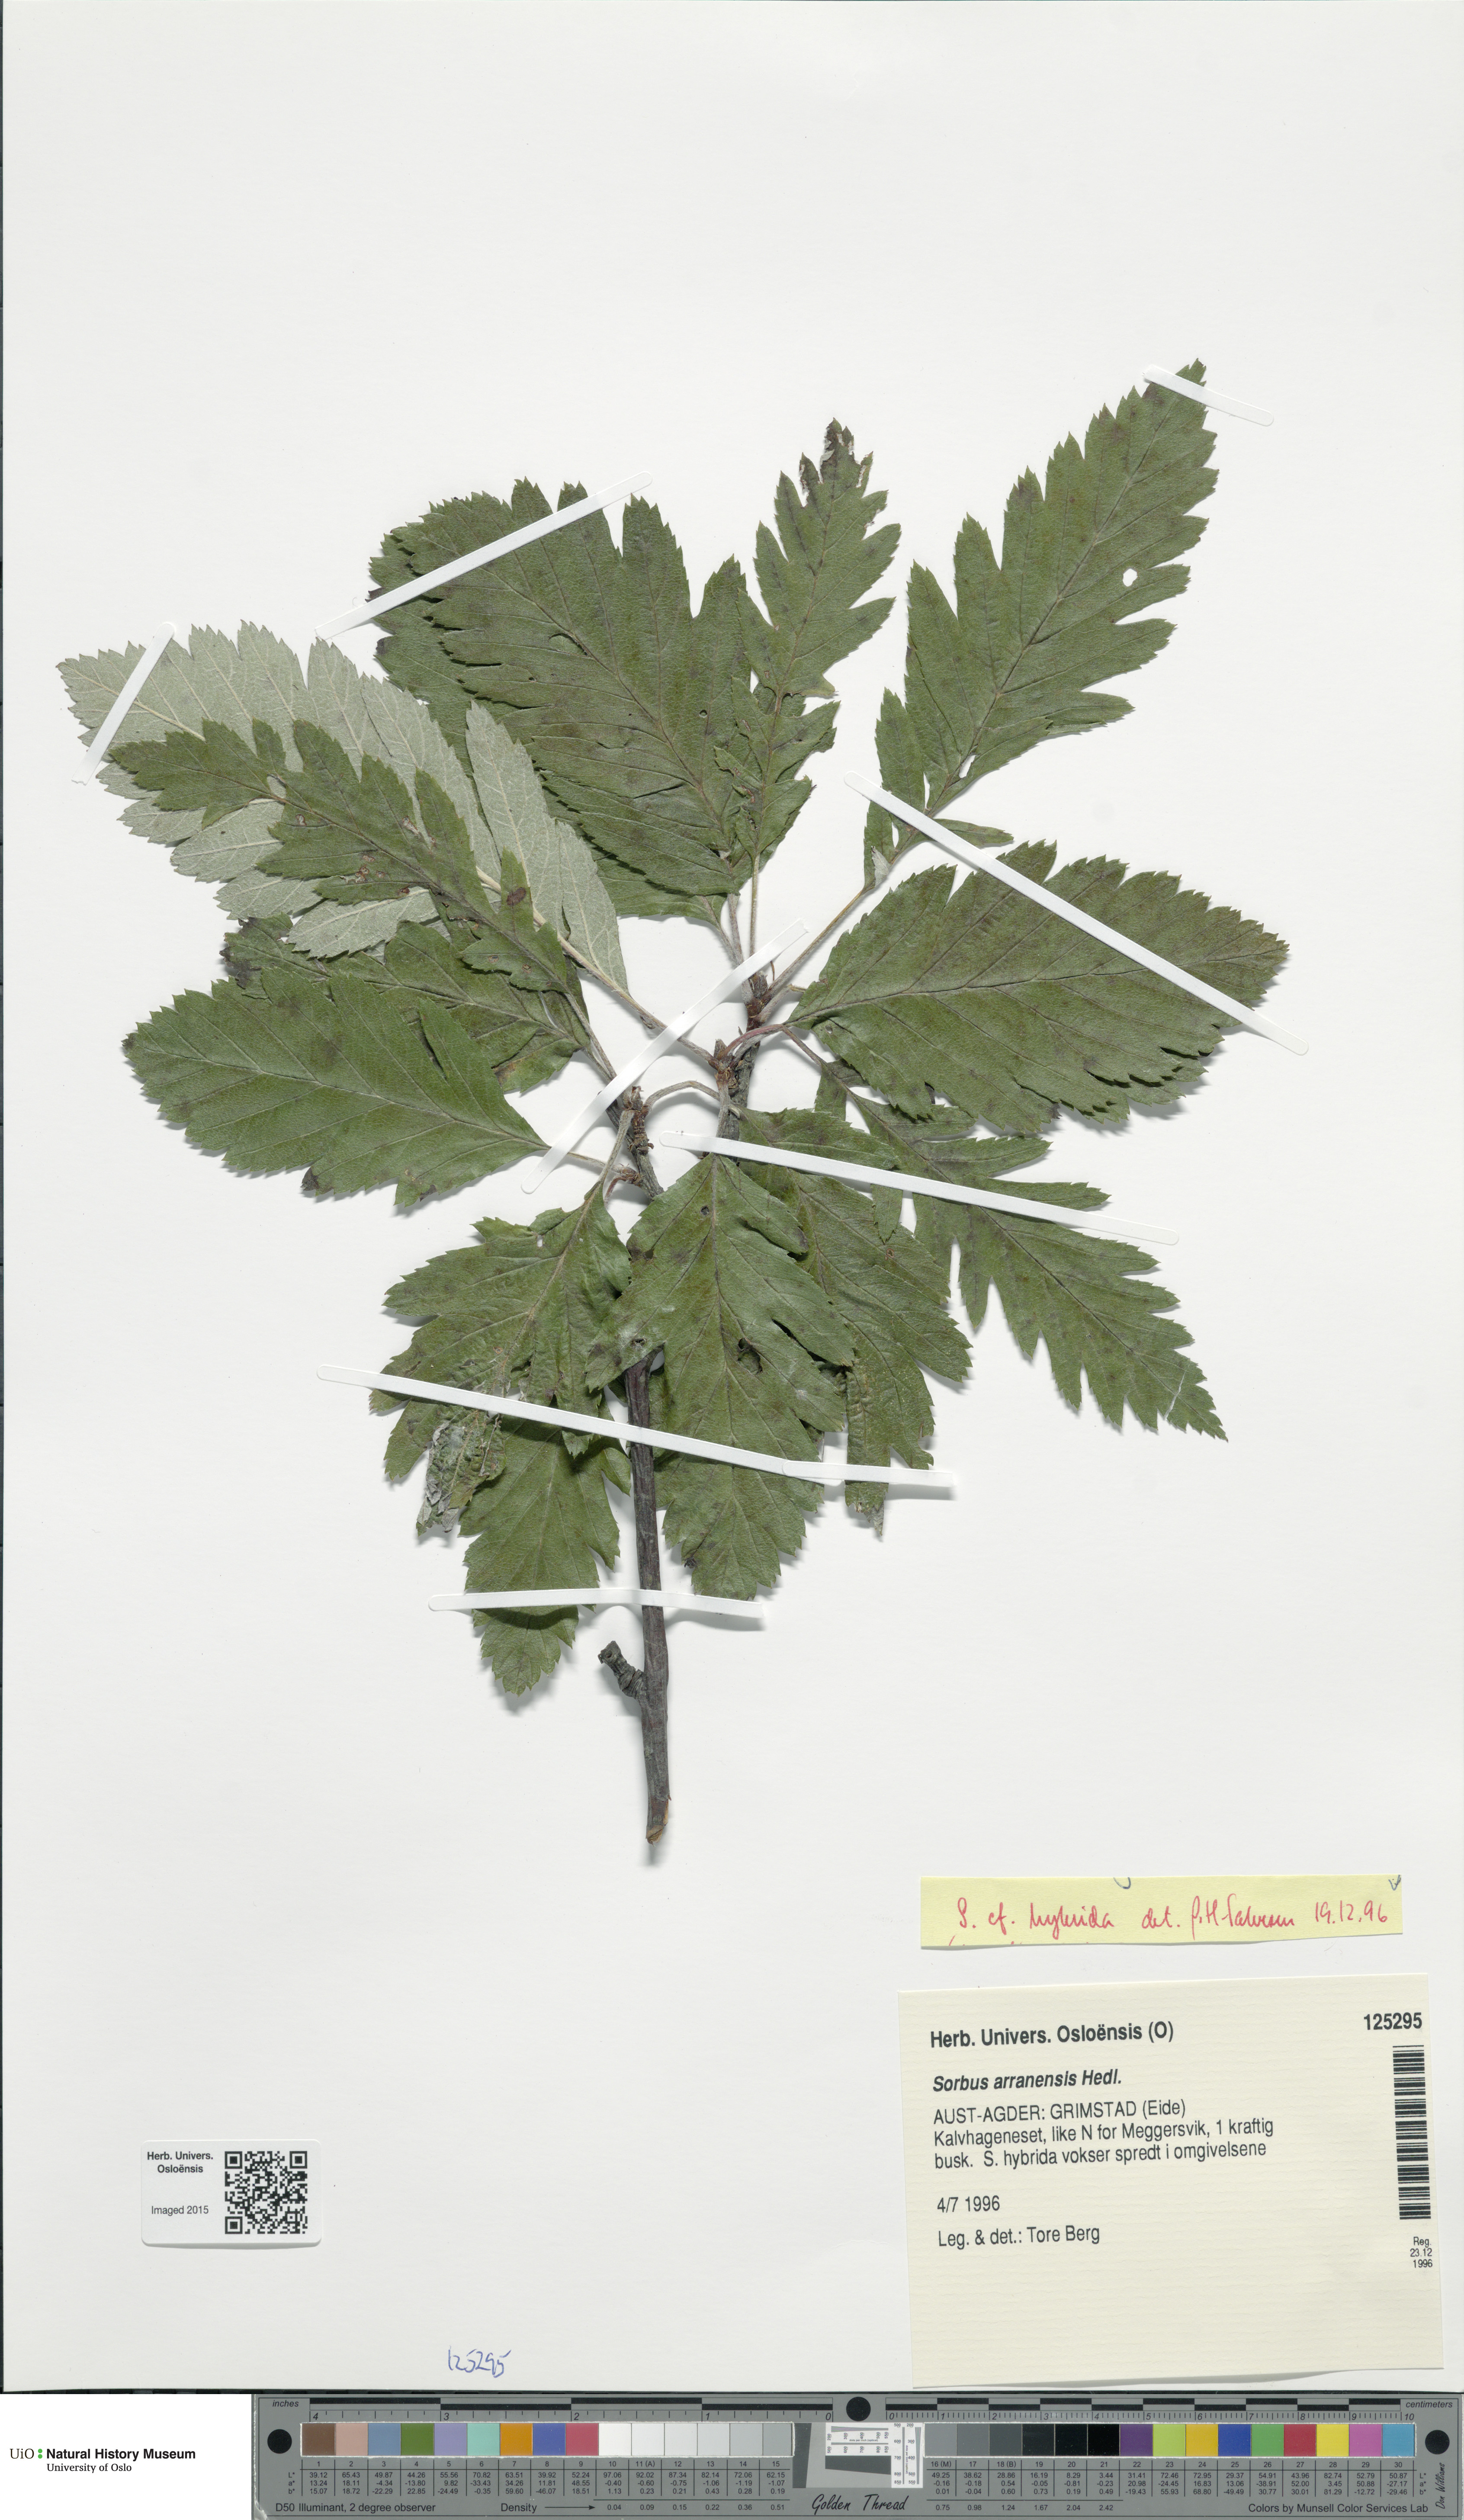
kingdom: Plantae
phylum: Tracheophyta
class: Magnoliopsida
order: Rosales
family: Rosaceae
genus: Hedlundia
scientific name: Hedlundia hybrida
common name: Swedish service-tree
